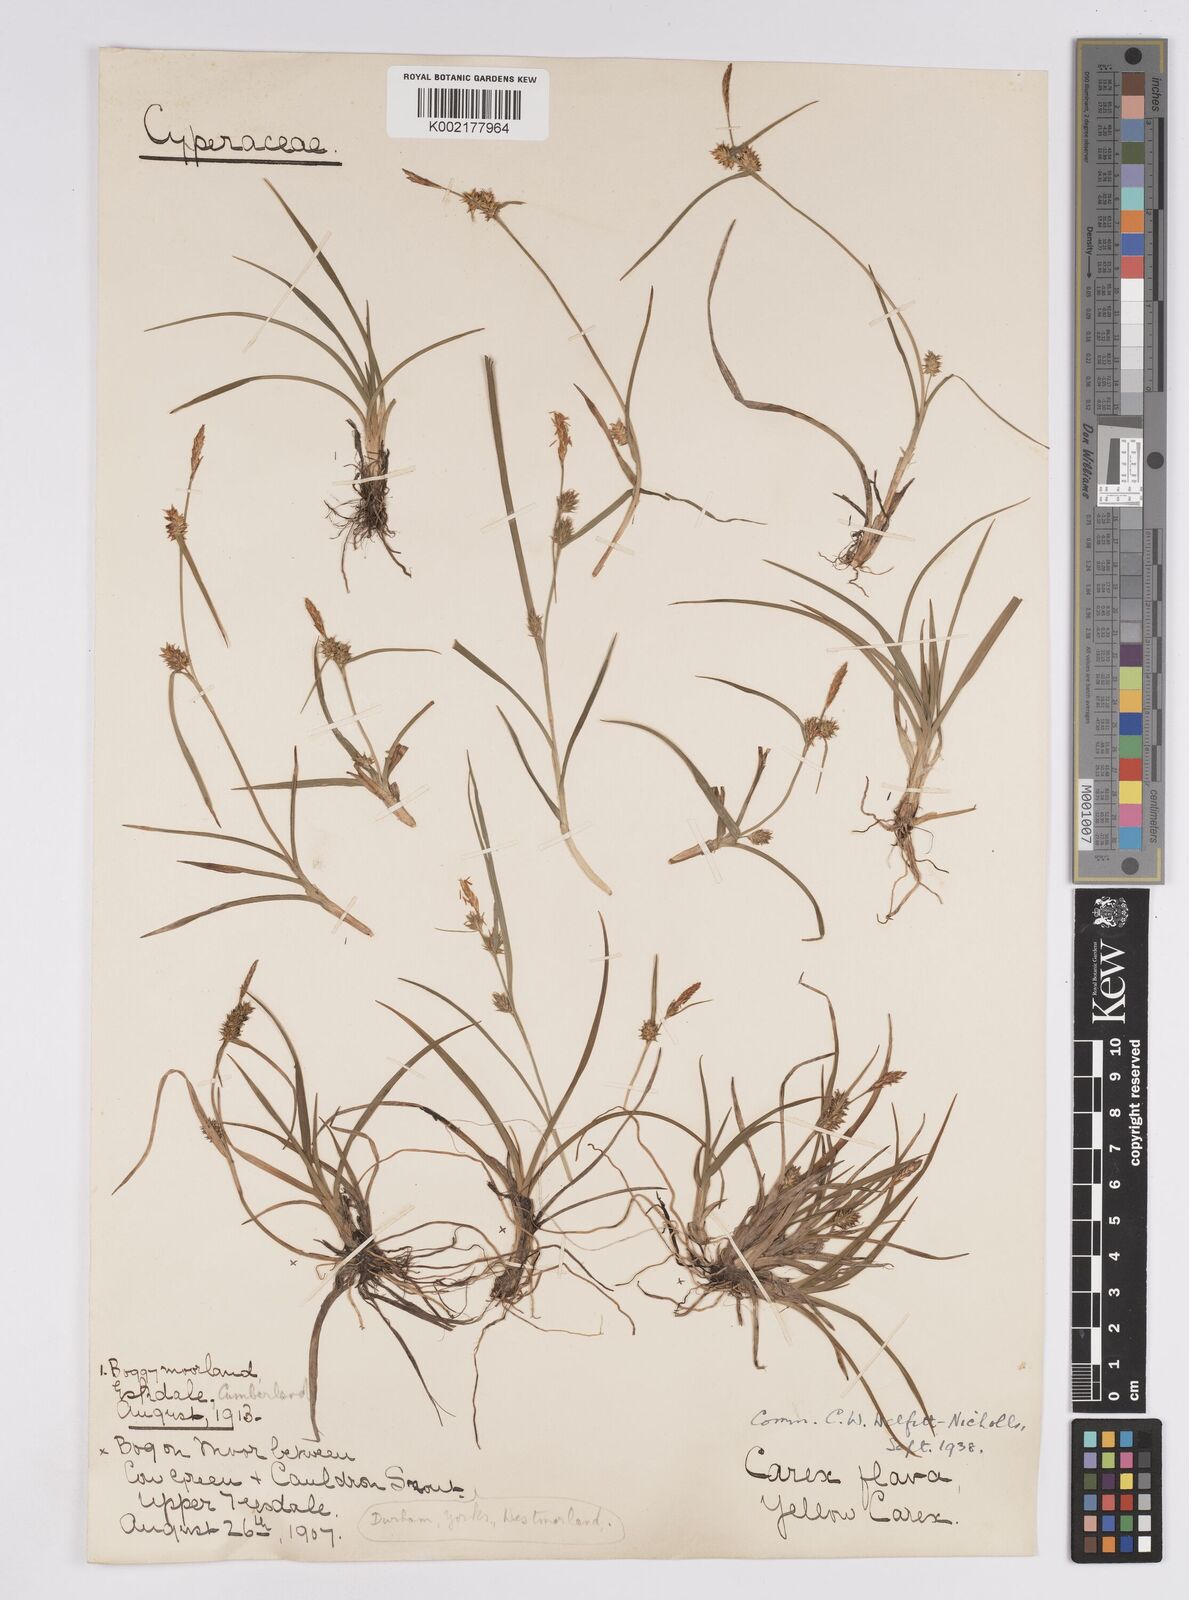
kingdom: Plantae
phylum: Tracheophyta
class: Liliopsida
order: Poales
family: Cyperaceae
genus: Carex
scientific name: Carex demissa
